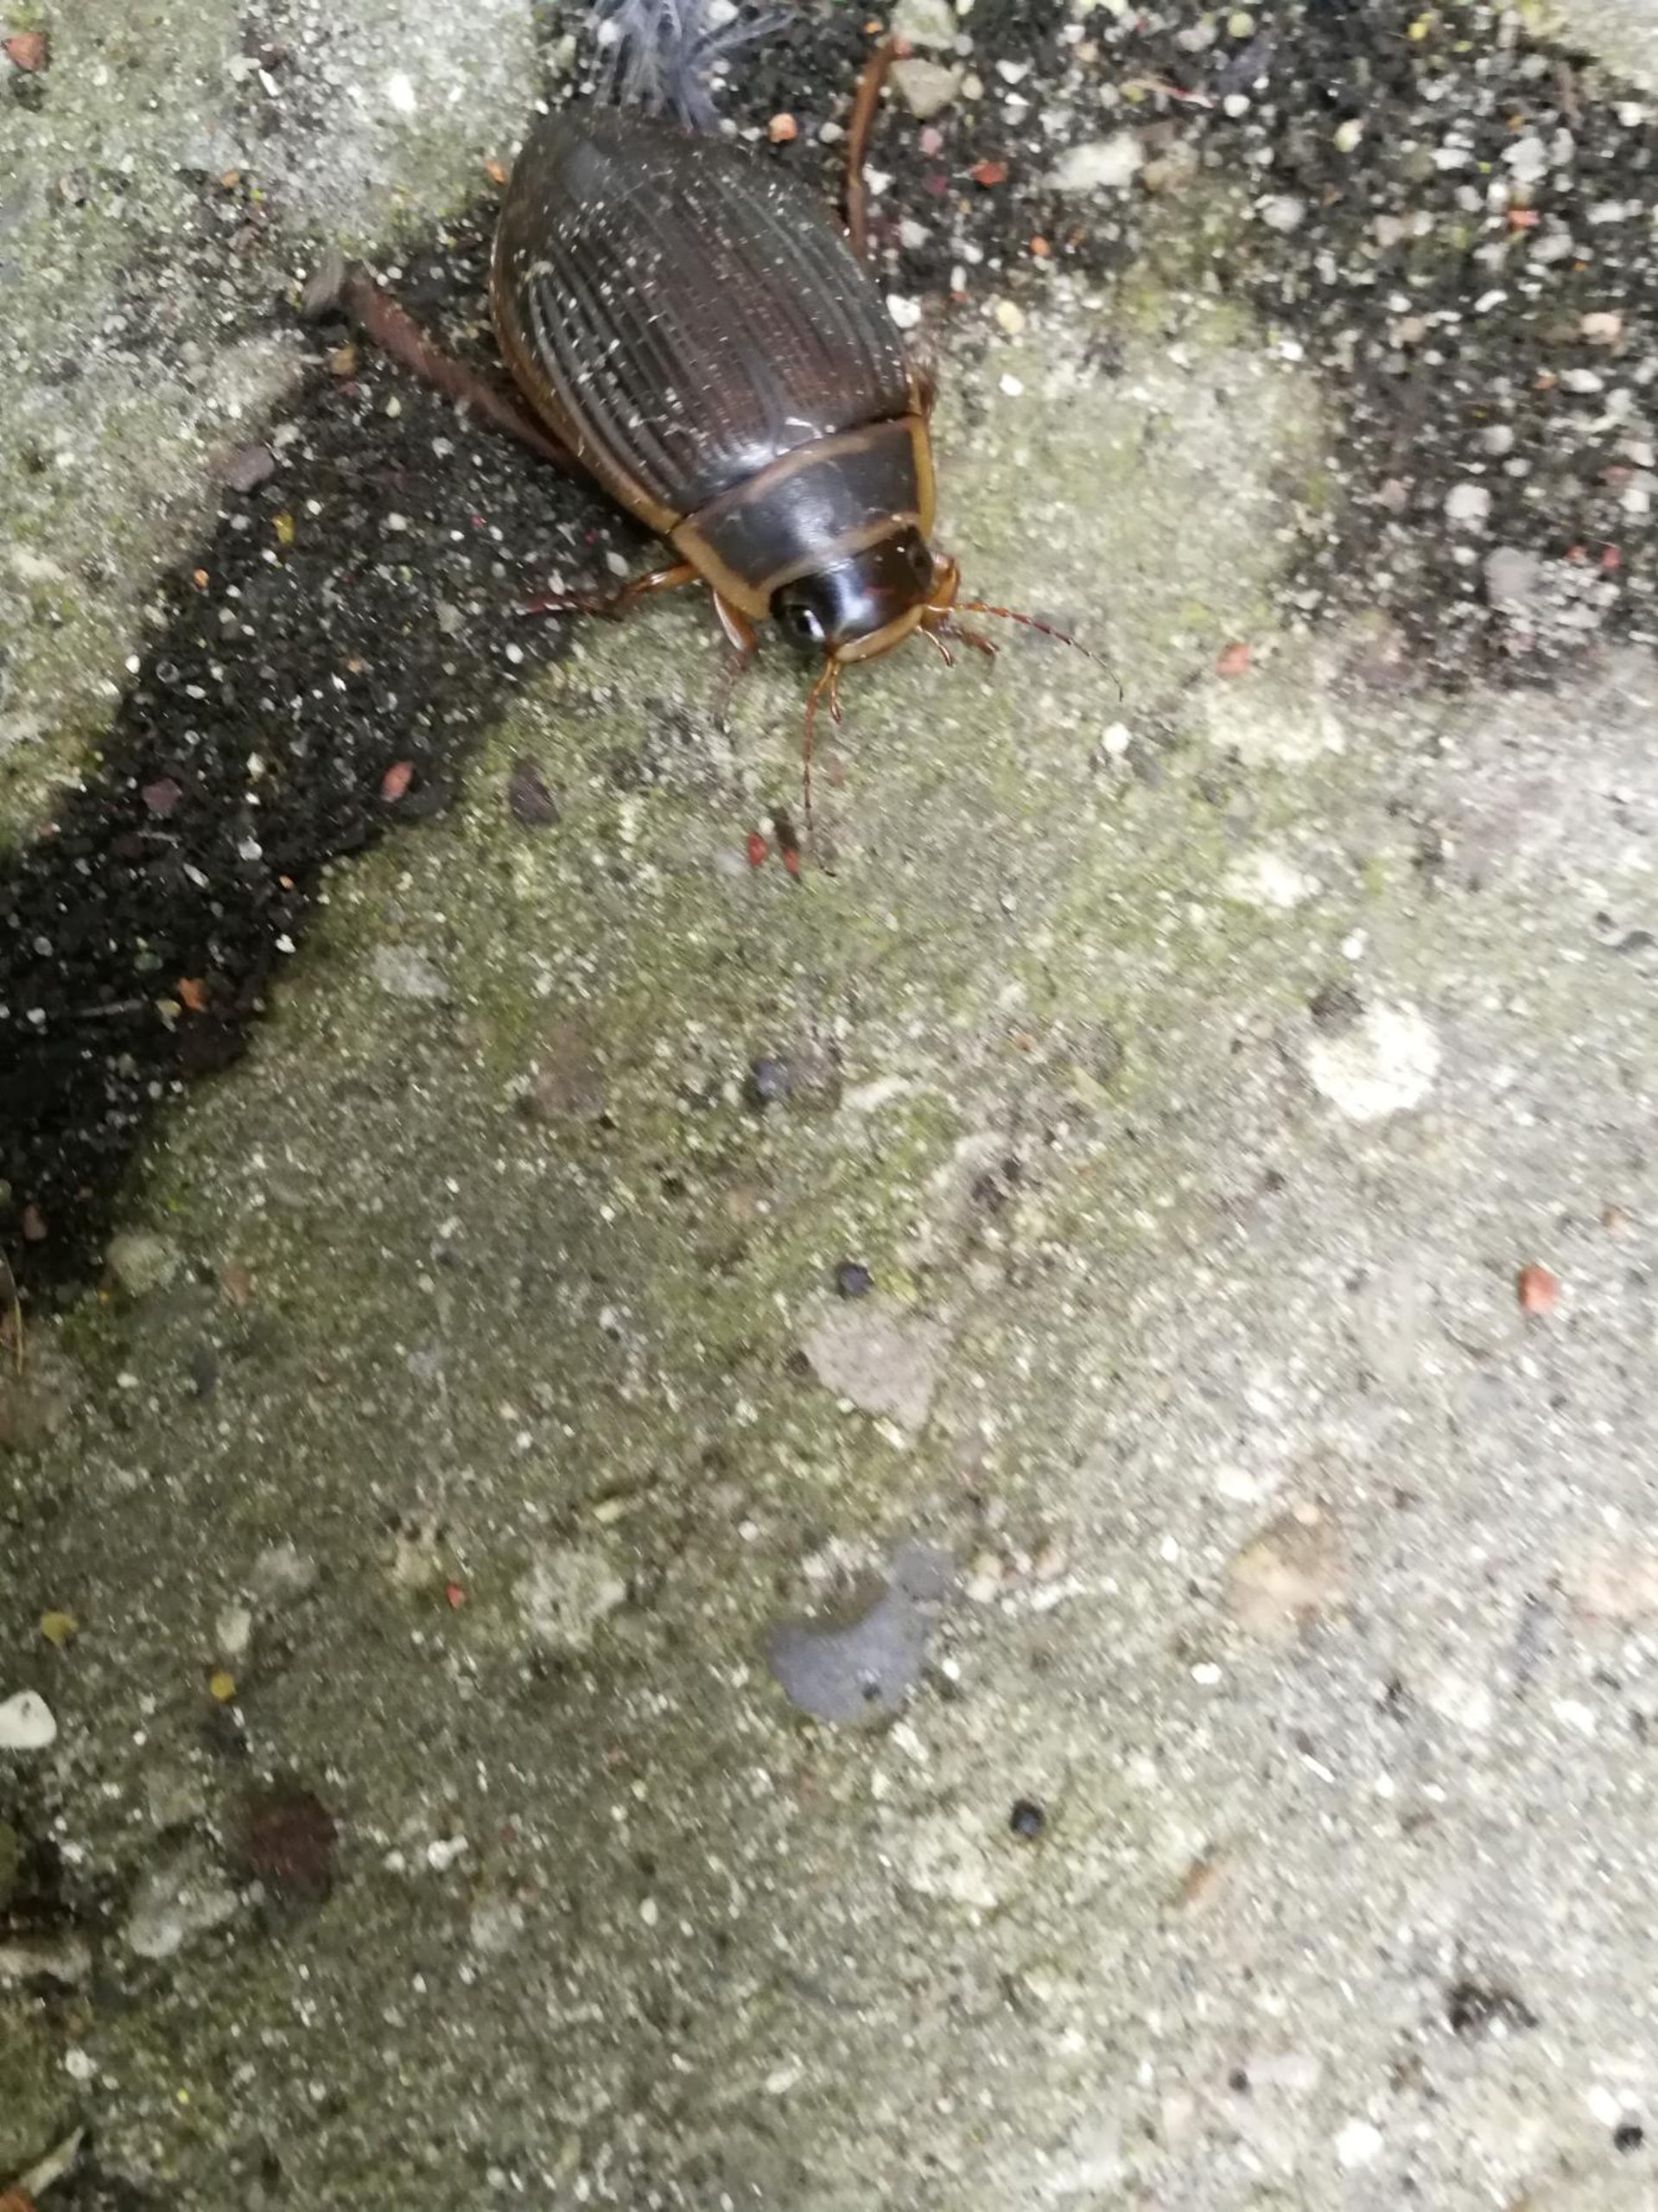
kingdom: Animalia
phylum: Arthropoda
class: Insecta
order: Coleoptera
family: Dytiscidae
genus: Dytiscus
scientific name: Dytiscus marginalis
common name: Stor vandkalv
